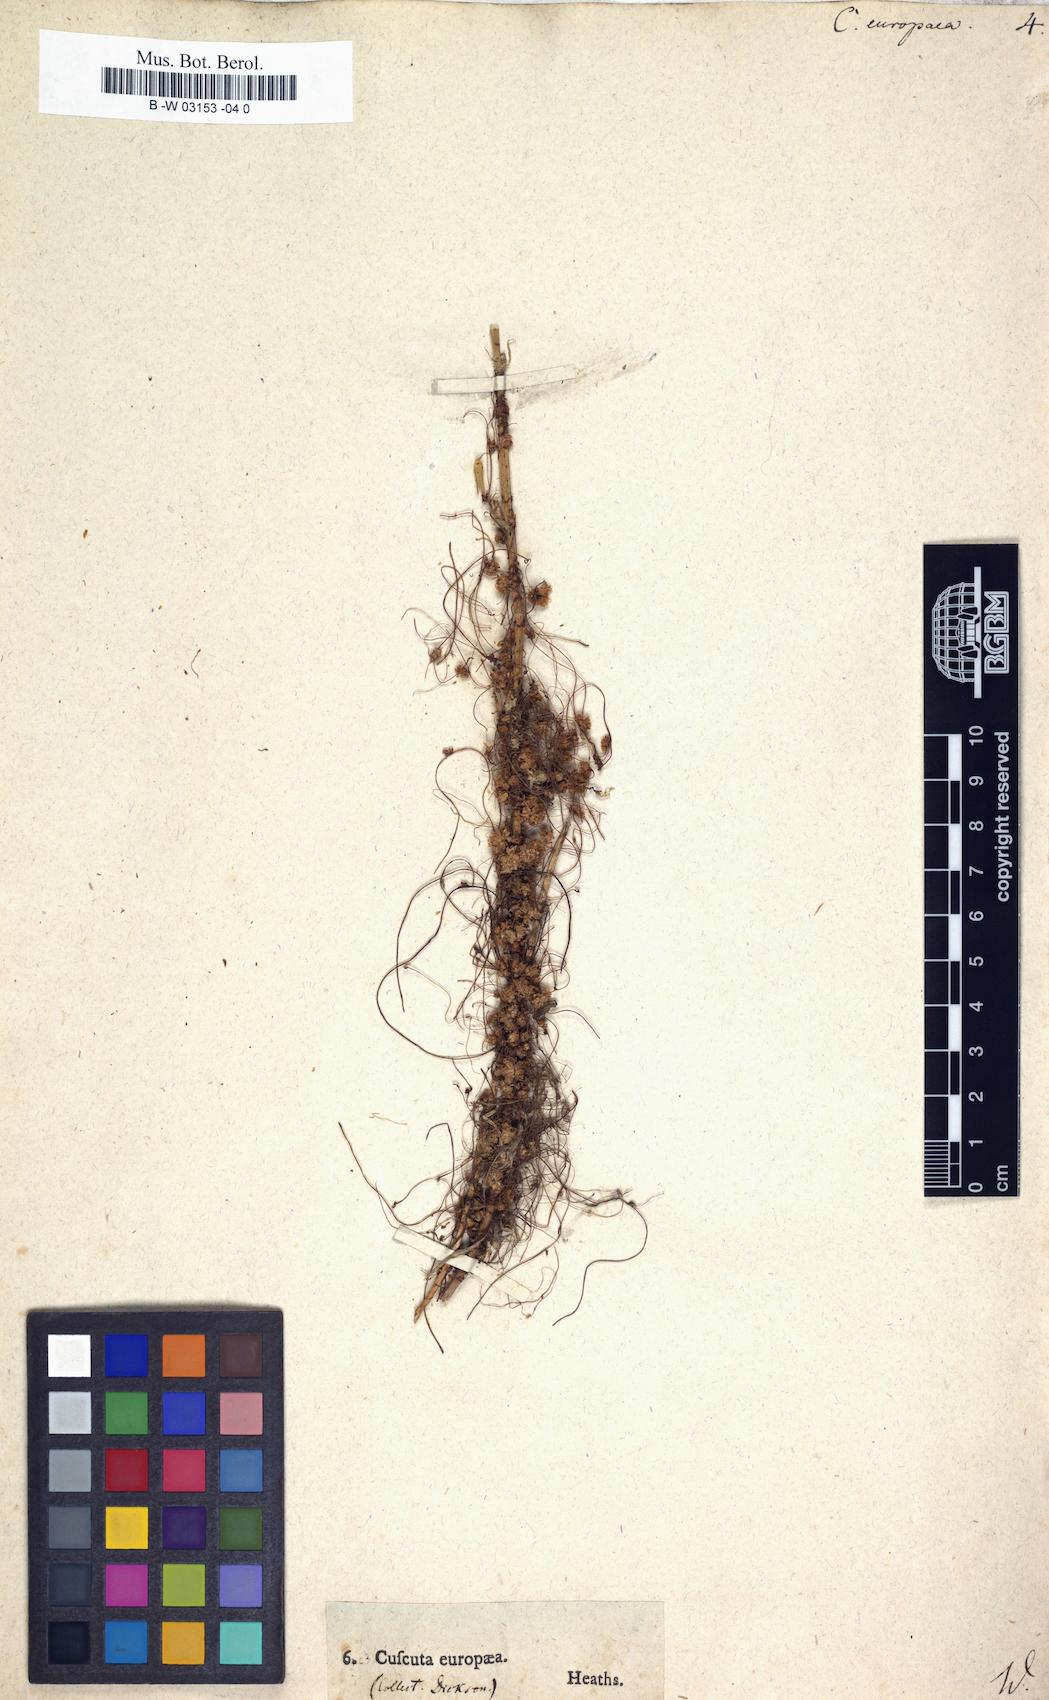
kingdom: Plantae
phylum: Tracheophyta
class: Magnoliopsida
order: Solanales
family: Convolvulaceae
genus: Cuscuta
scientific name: Cuscuta europaea
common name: Greater dodder
